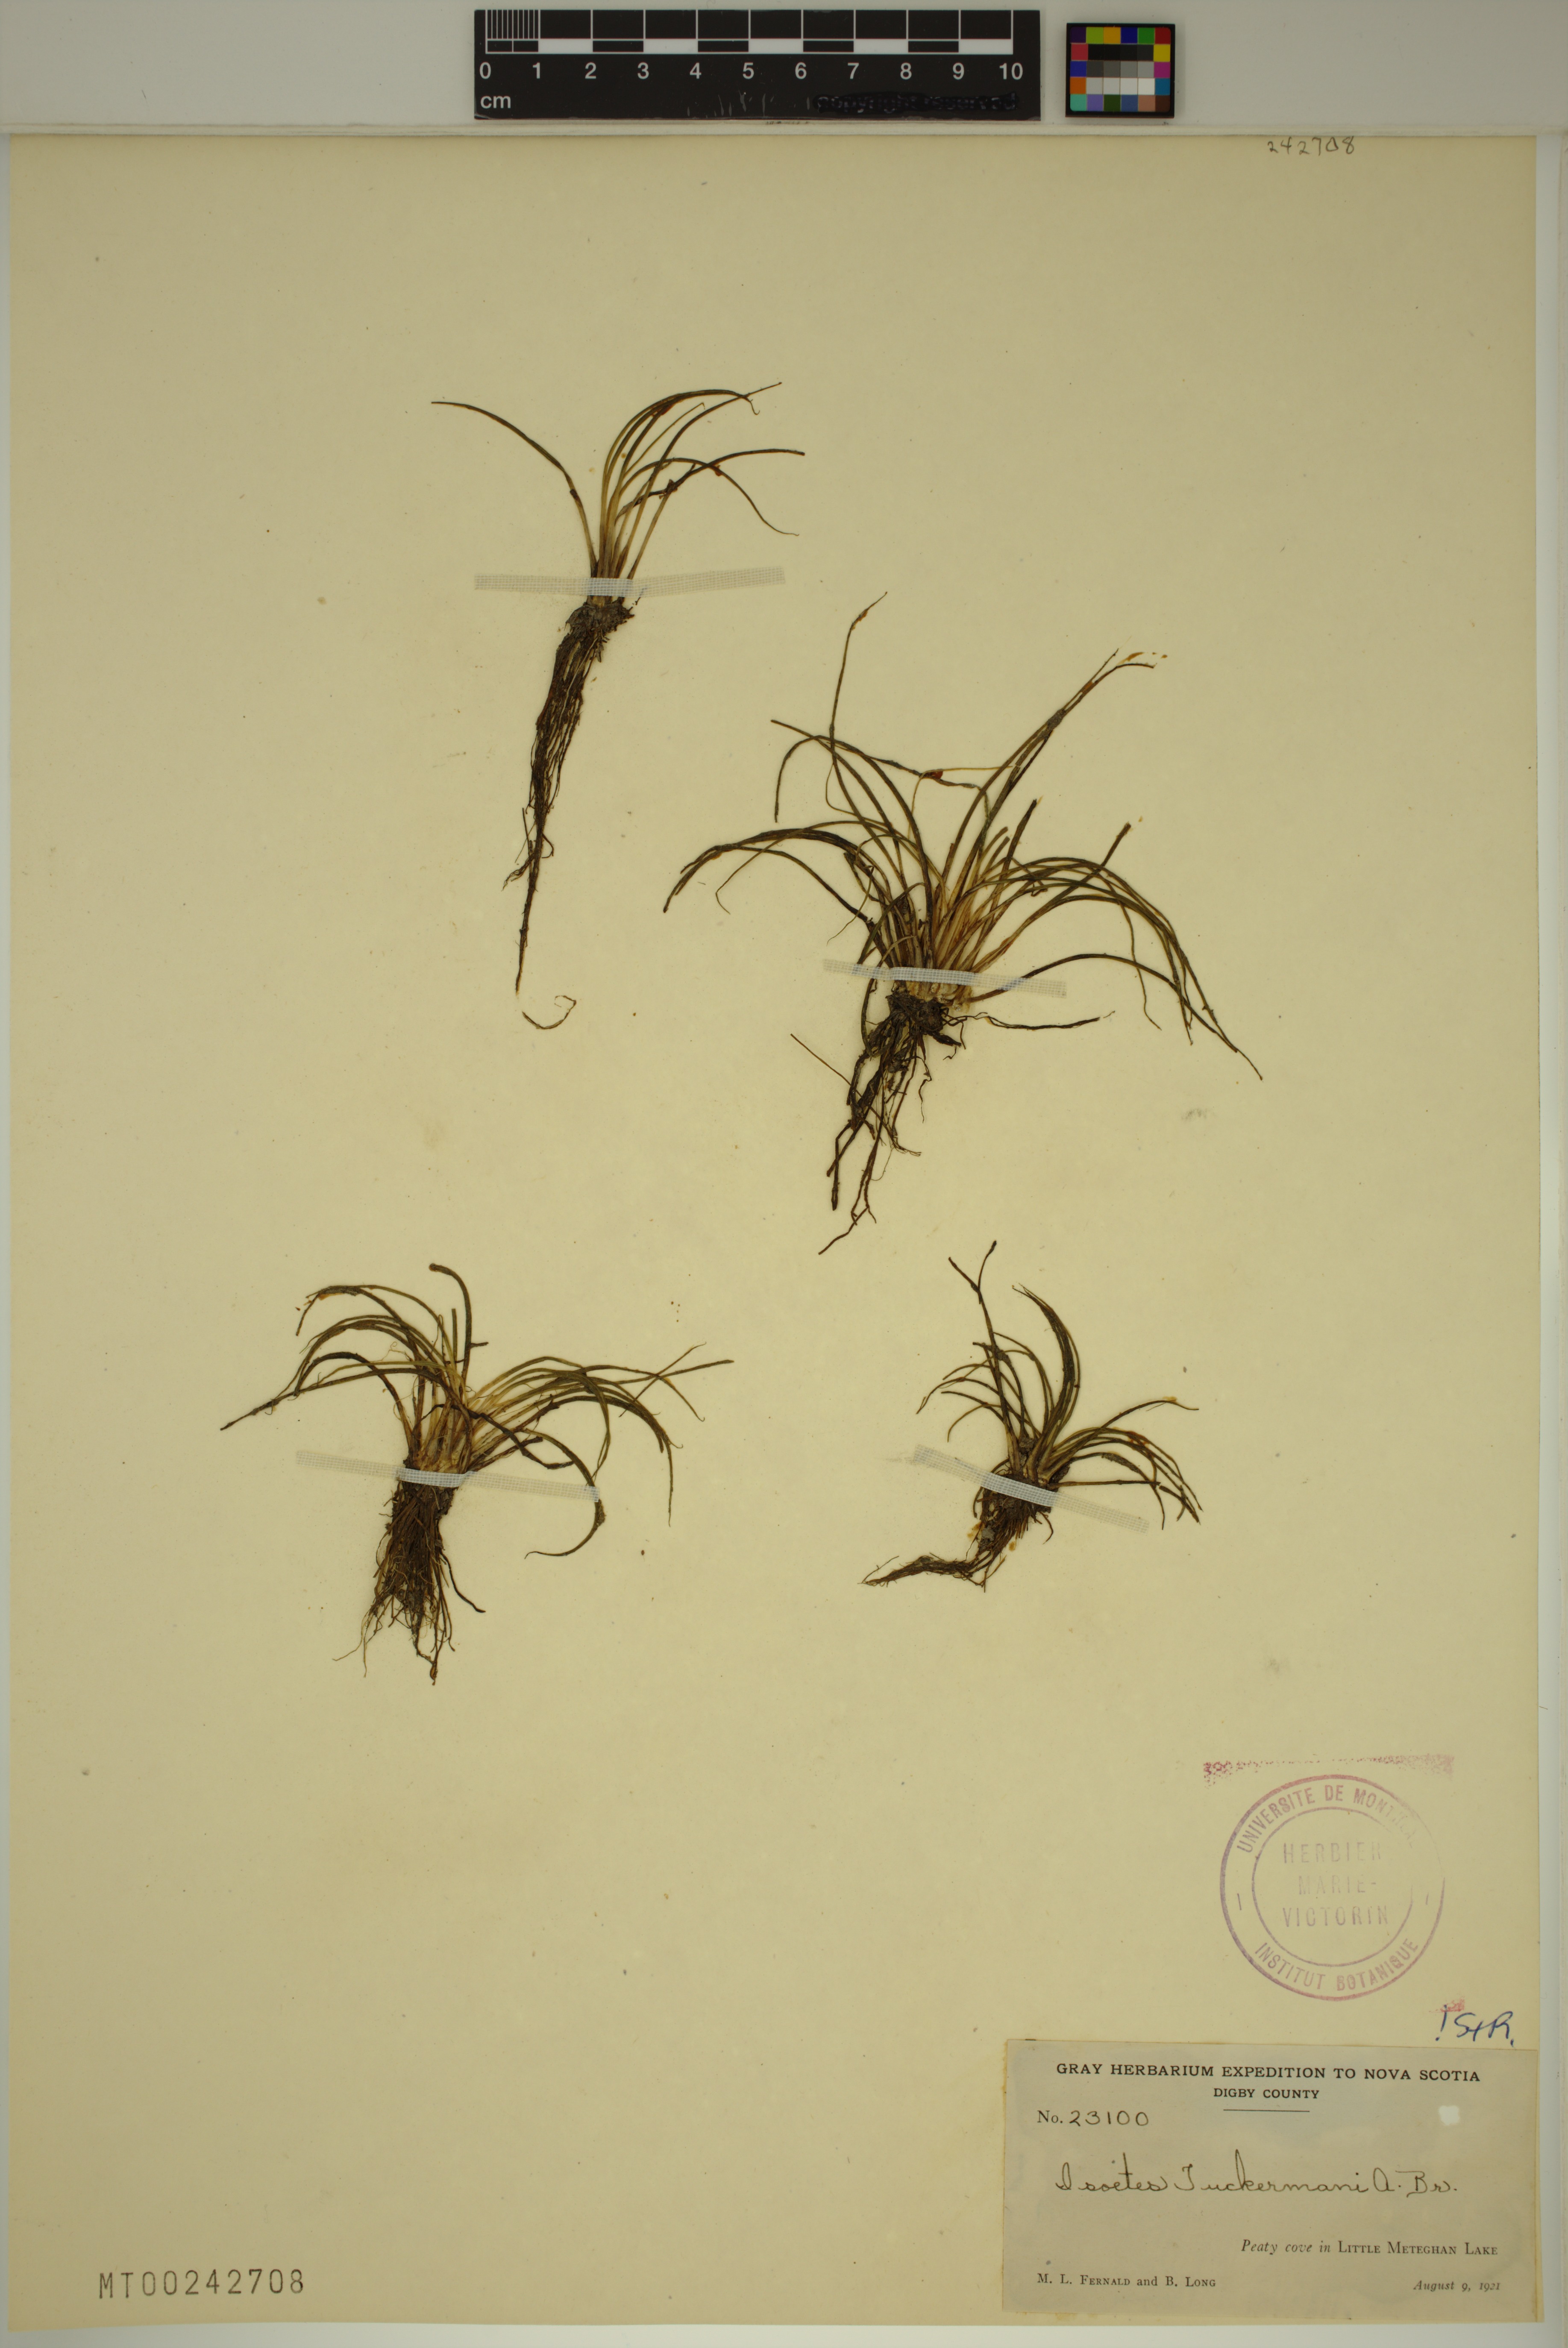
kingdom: Plantae
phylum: Tracheophyta
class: Lycopodiopsida
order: Isoetales
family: Isoetaceae
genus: Isoetes
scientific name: Isoetes tuckermanii
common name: Tuckerman's quillwort
